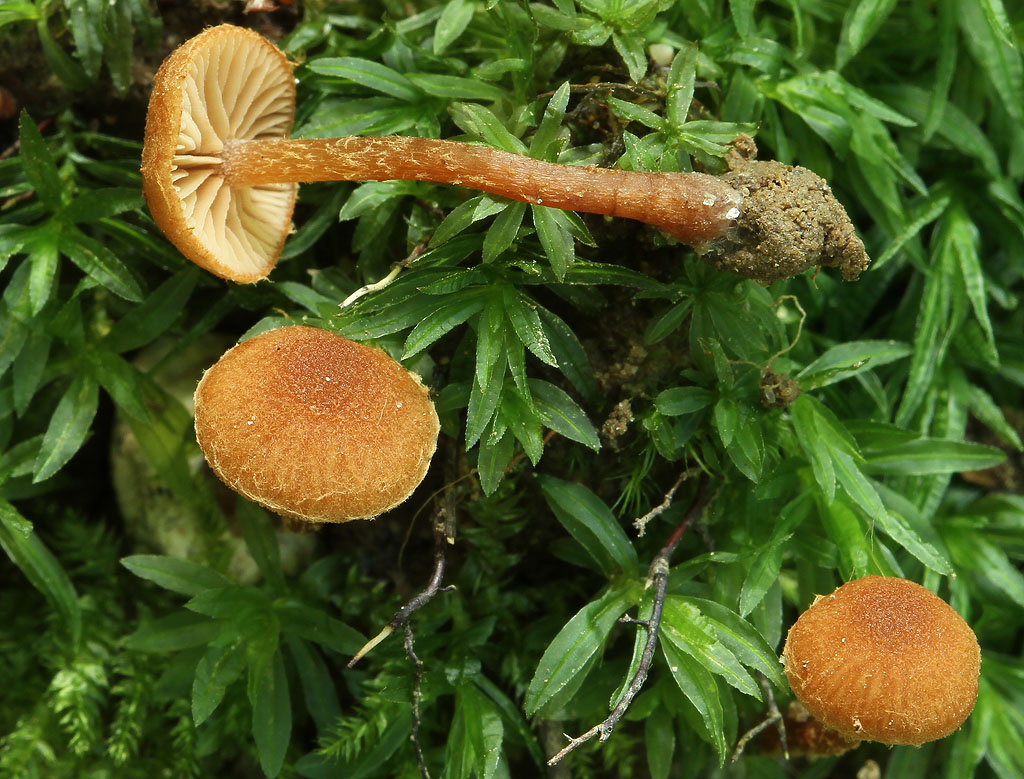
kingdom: Fungi
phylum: Basidiomycota
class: Agaricomycetes
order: Agaricales
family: Tubariaceae
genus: Flammulaster
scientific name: Flammulaster ferrugineus
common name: rustbrun grynskælhat
